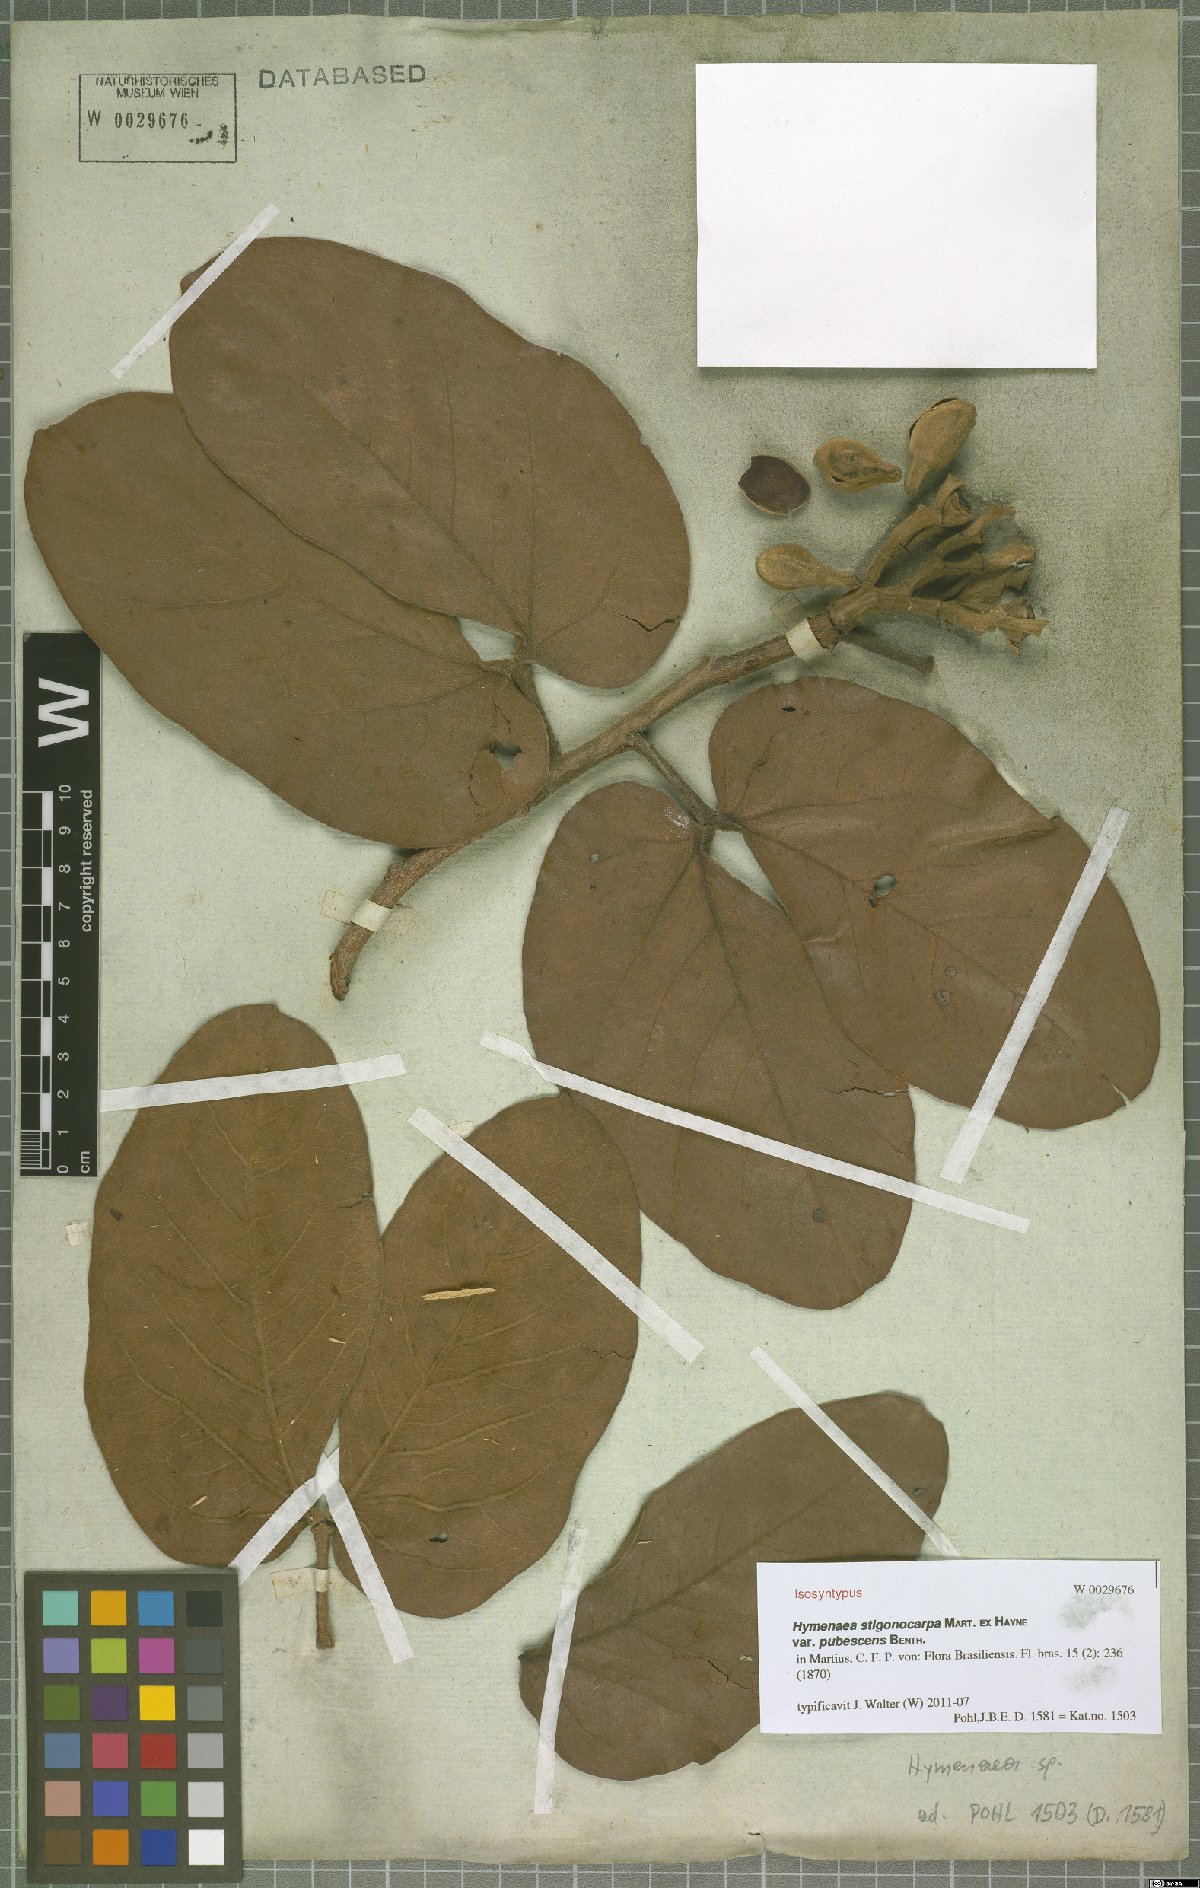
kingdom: Plantae
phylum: Tracheophyta
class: Magnoliopsida
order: Fabales
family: Fabaceae
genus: Hymenaea
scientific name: Hymenaea stigonocarpa
